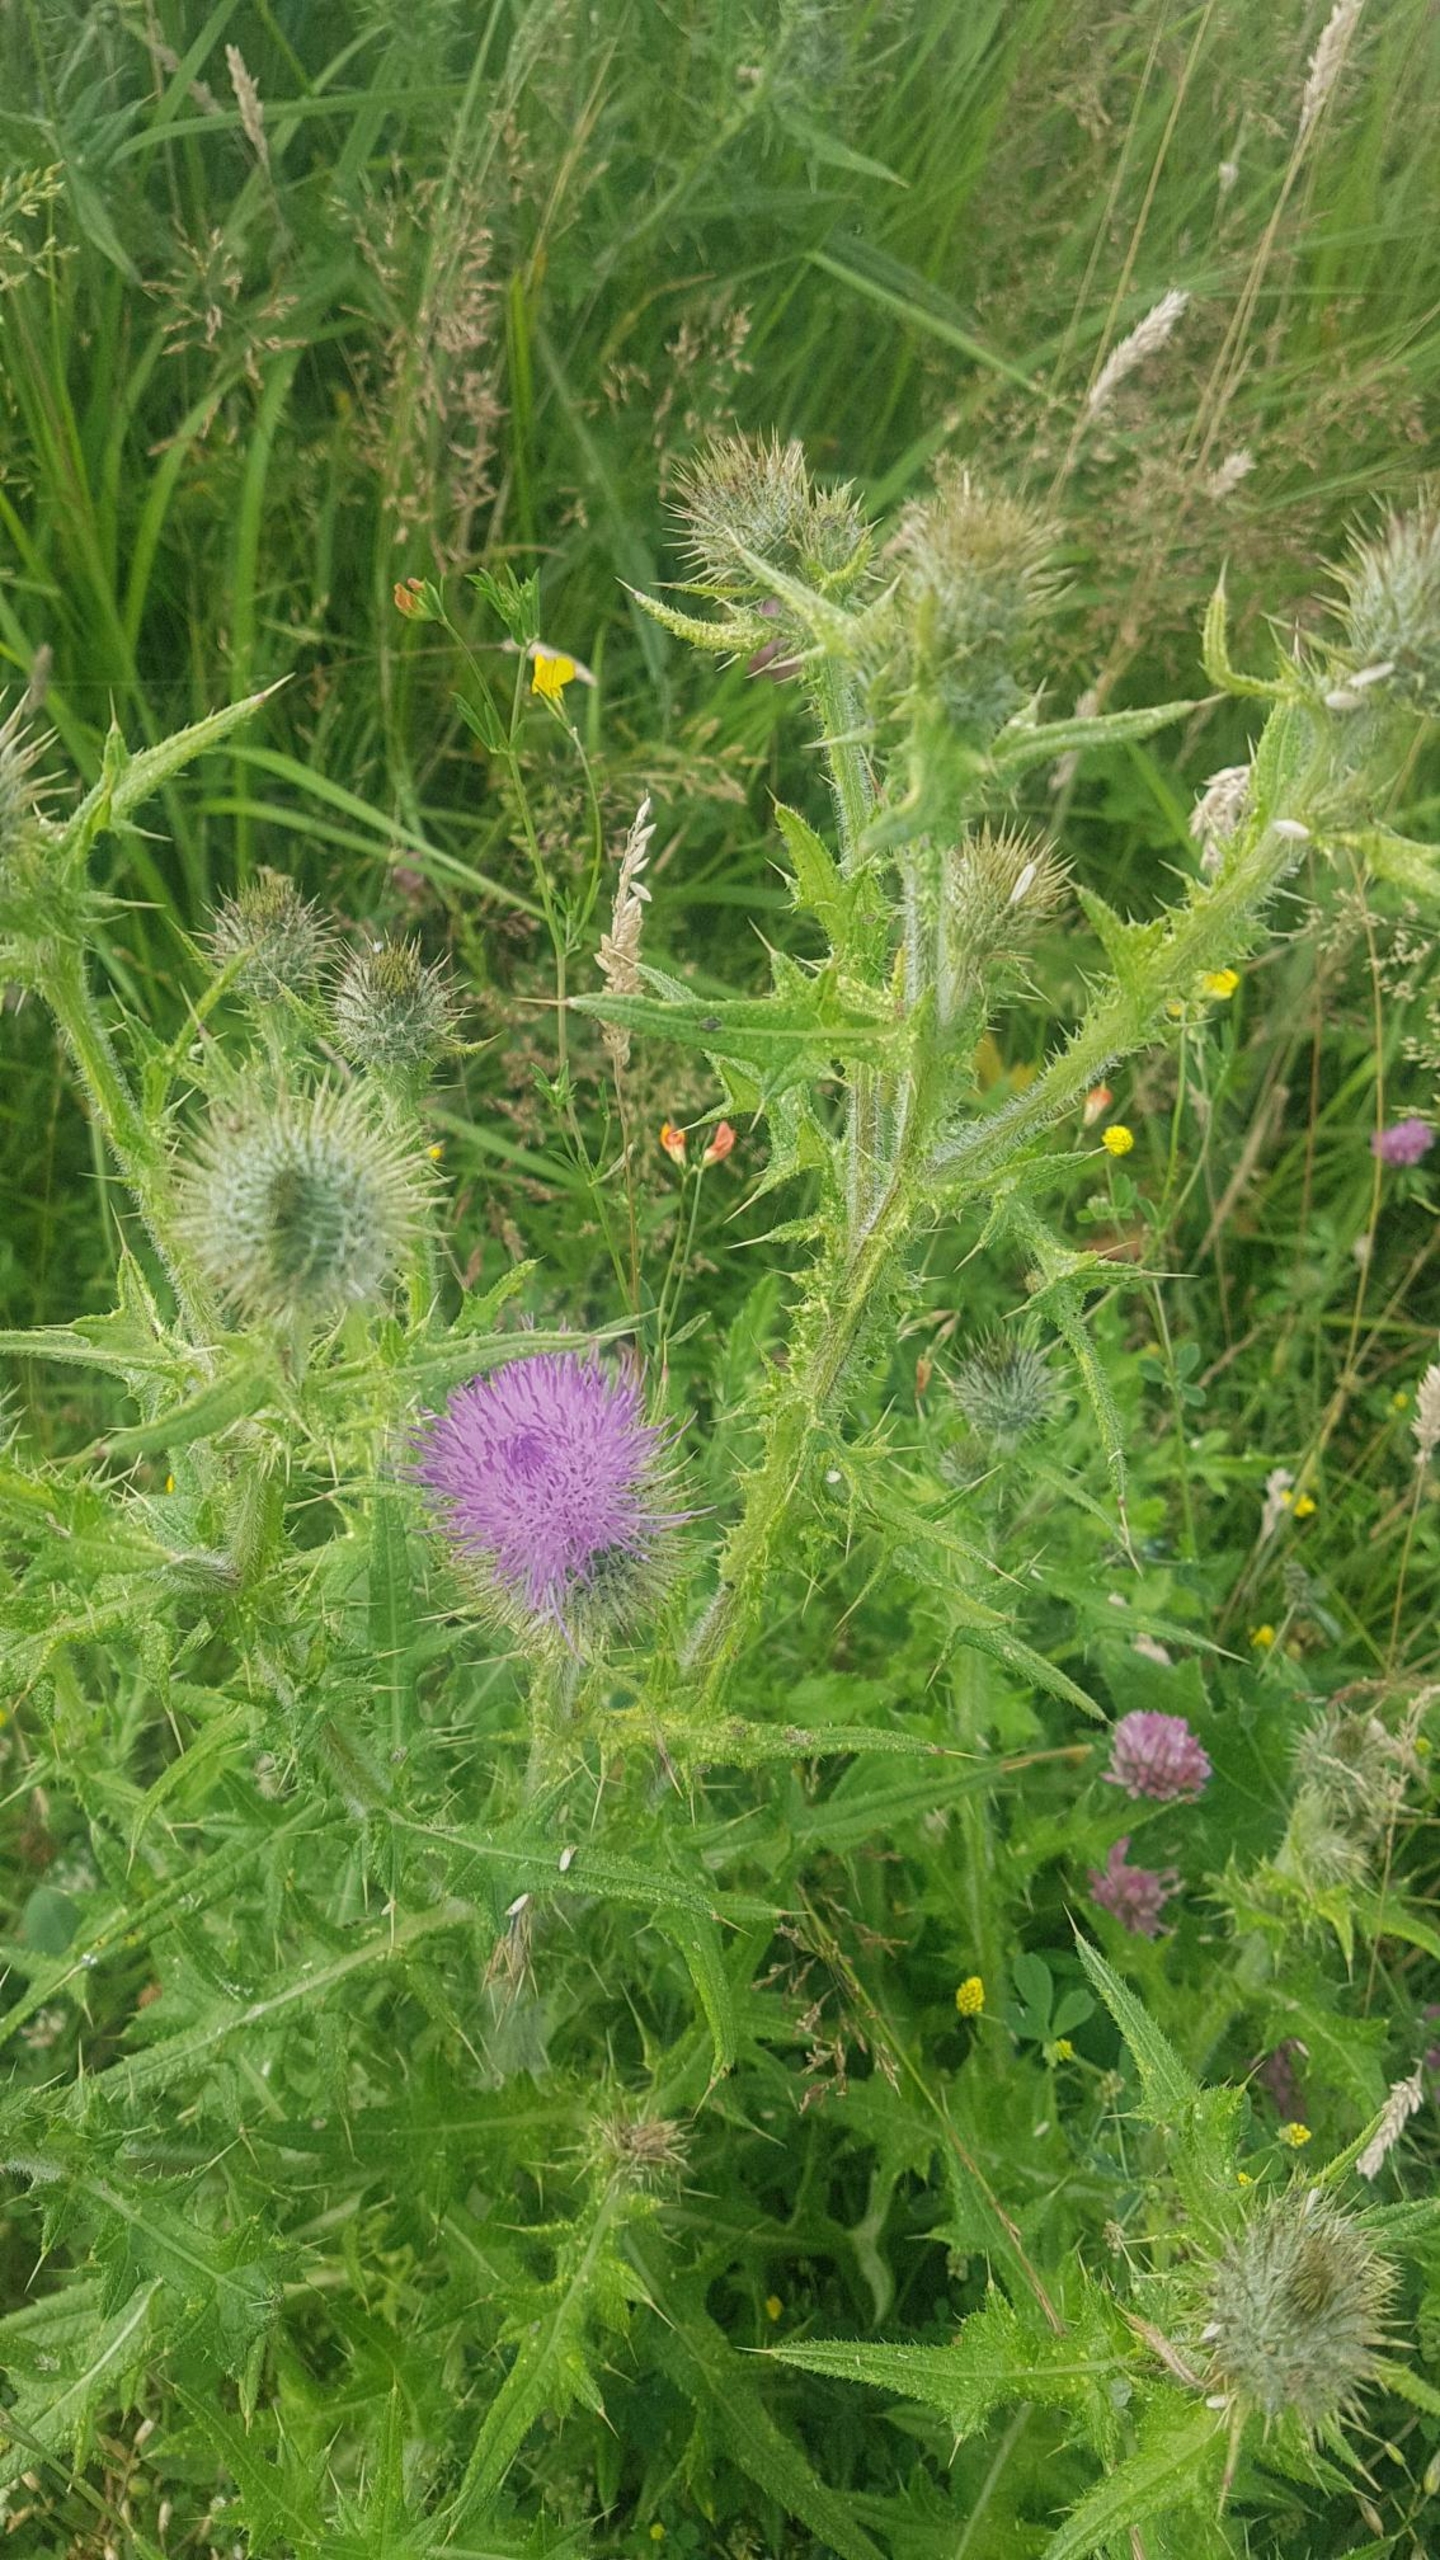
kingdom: Plantae
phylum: Tracheophyta
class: Magnoliopsida
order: Asterales
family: Asteraceae
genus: Cirsium
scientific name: Cirsium vulgare
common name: Horse-tidsel
